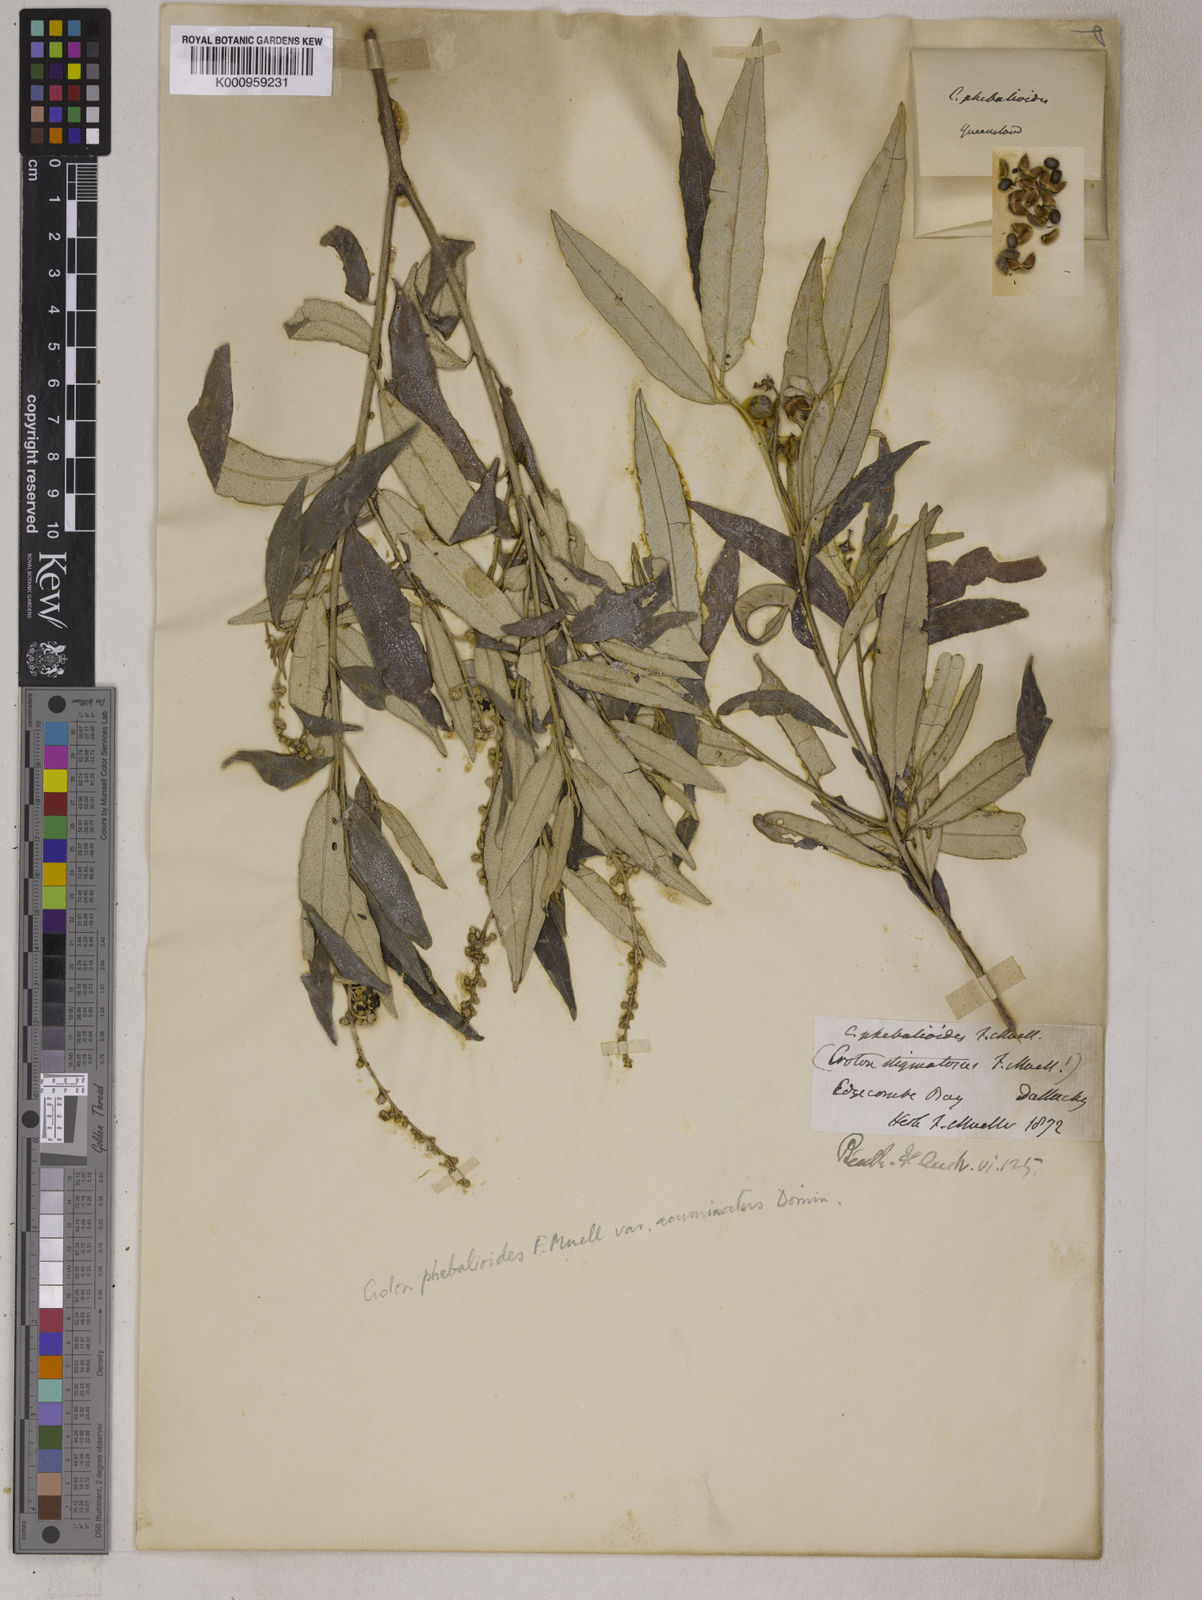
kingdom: Plantae
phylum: Tracheophyta
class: Magnoliopsida
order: Malpighiales
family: Euphorbiaceae
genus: Croton
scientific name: Croton
